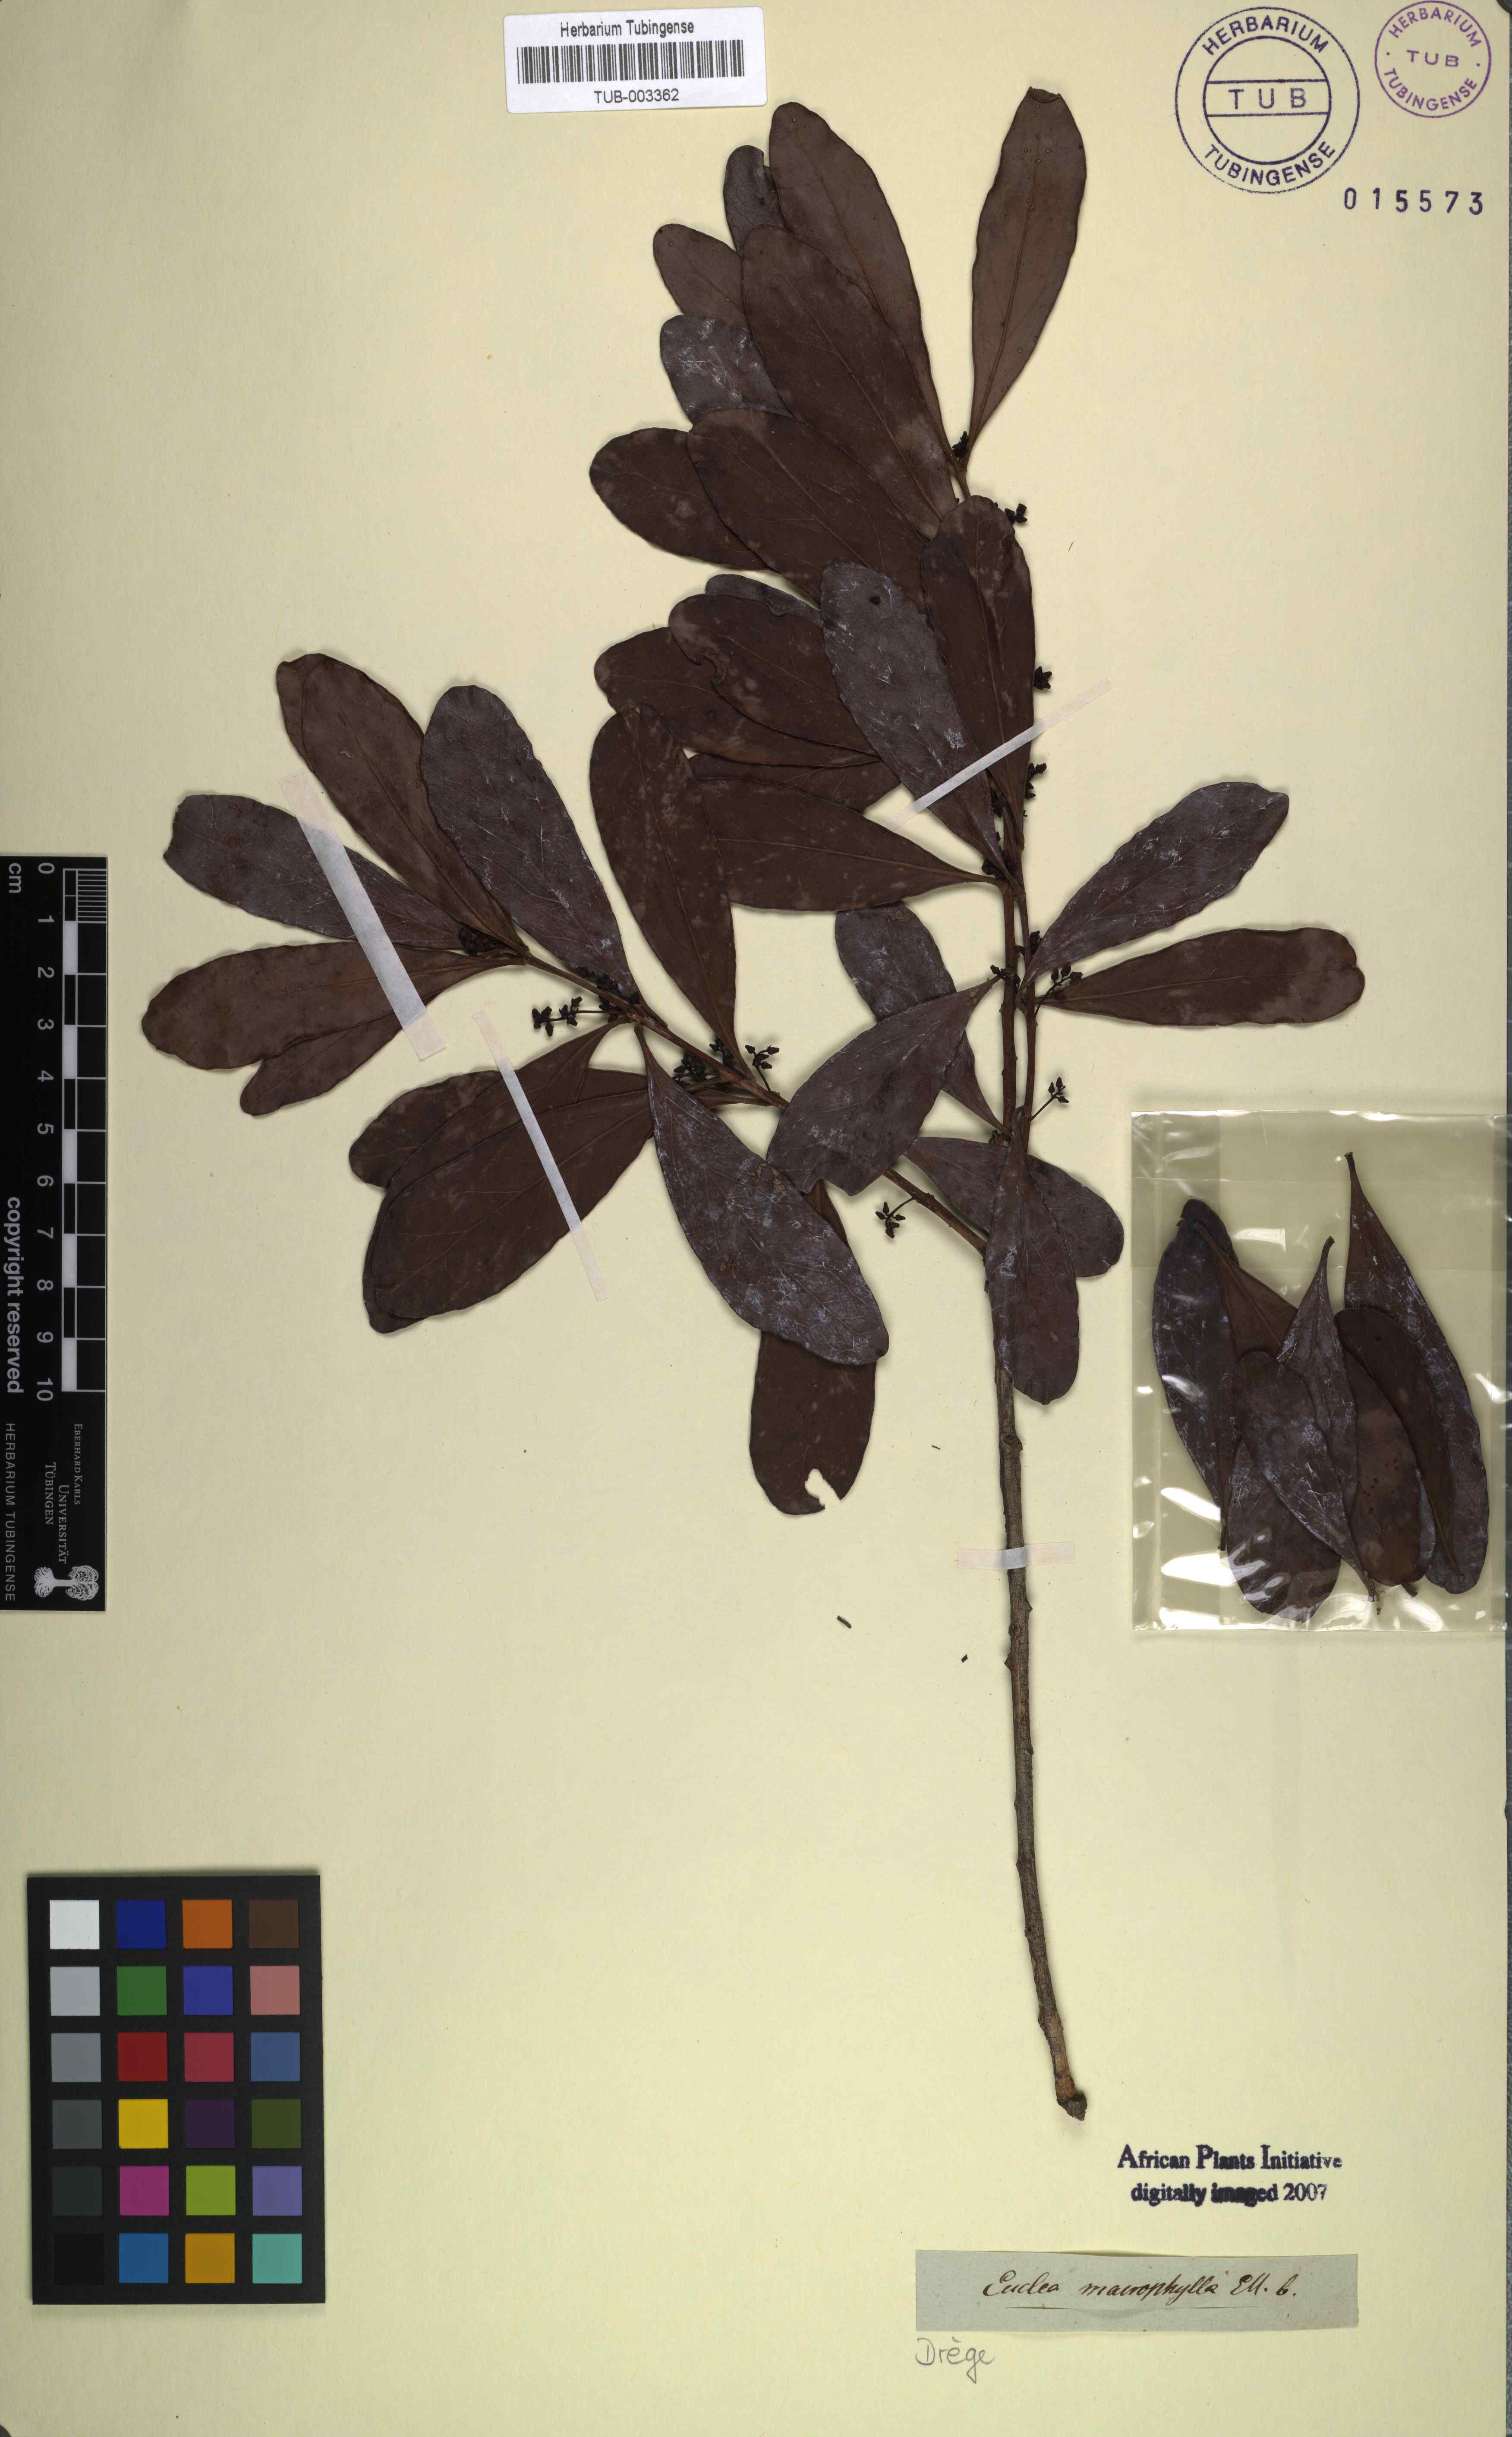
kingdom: Plantae
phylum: Tracheophyta
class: Magnoliopsida
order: Ericales
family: Ebenaceae
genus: Euclea
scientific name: Euclea natalensis
